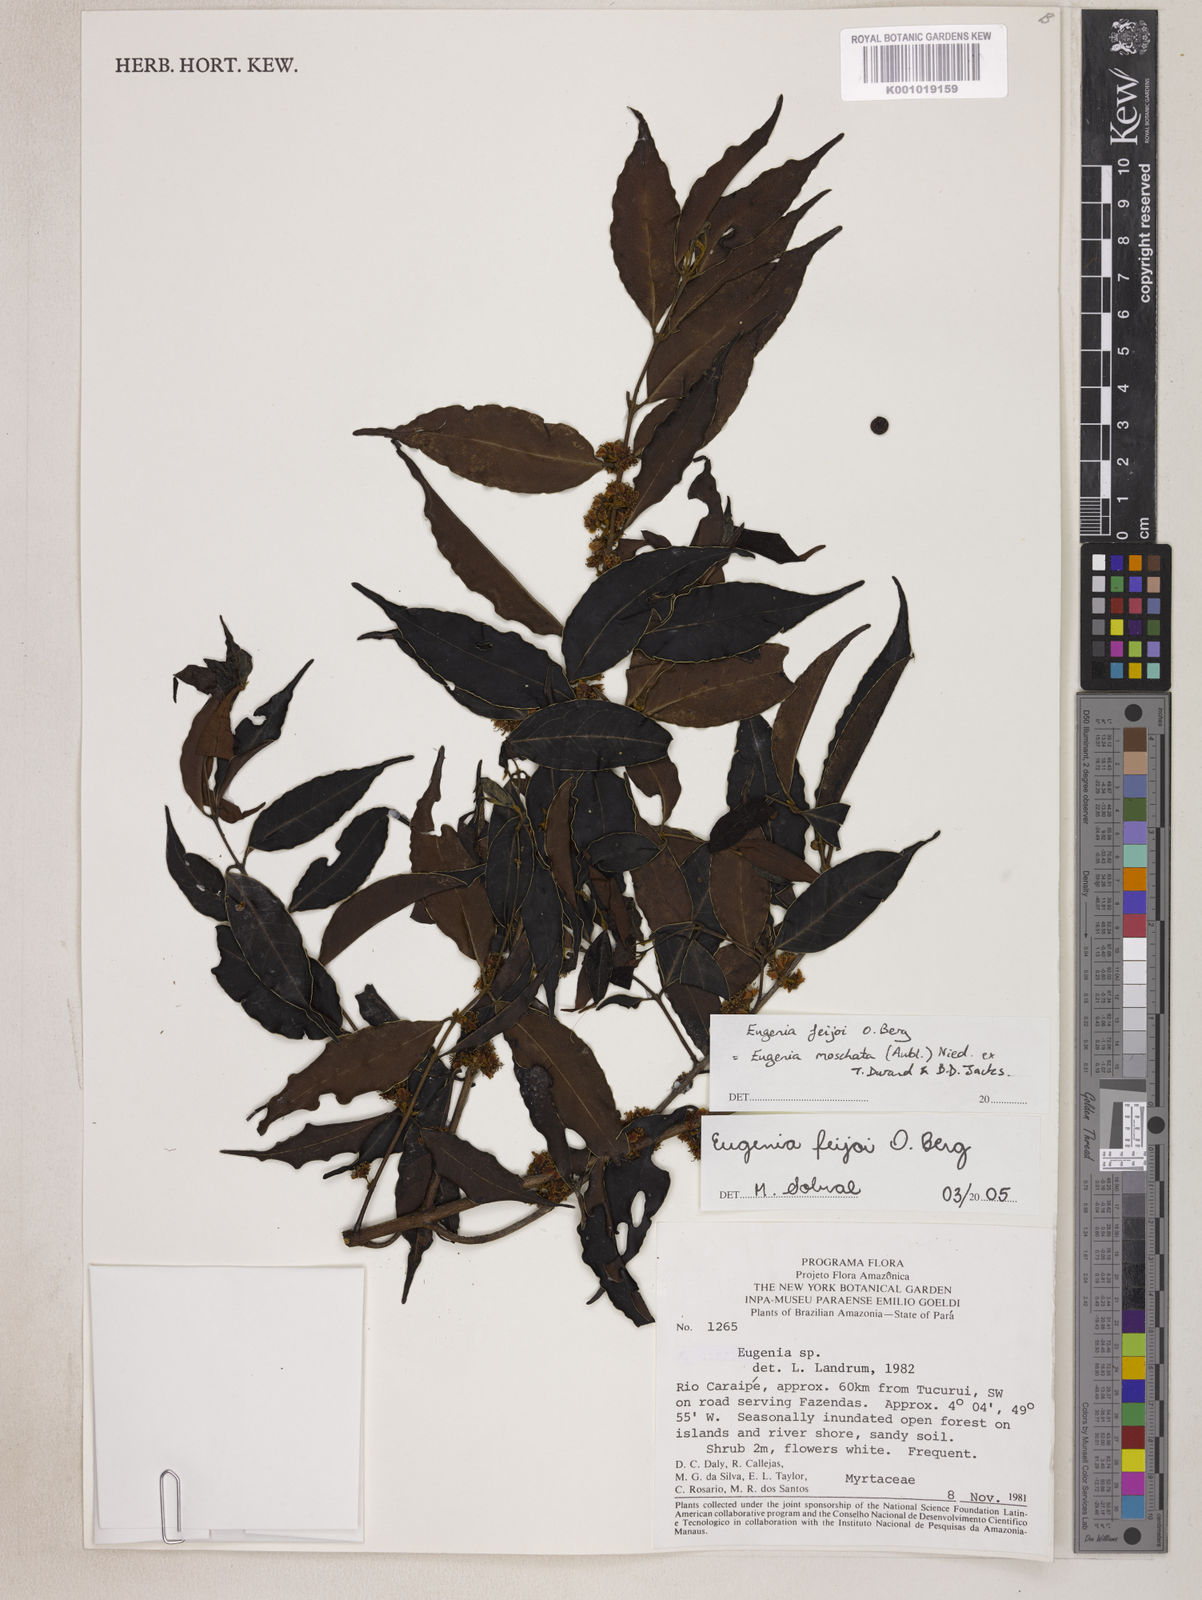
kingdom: Plantae
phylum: Tracheophyta
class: Magnoliopsida
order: Myrtales
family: Myrtaceae
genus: Eugenia
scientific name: Eugenia moschata
